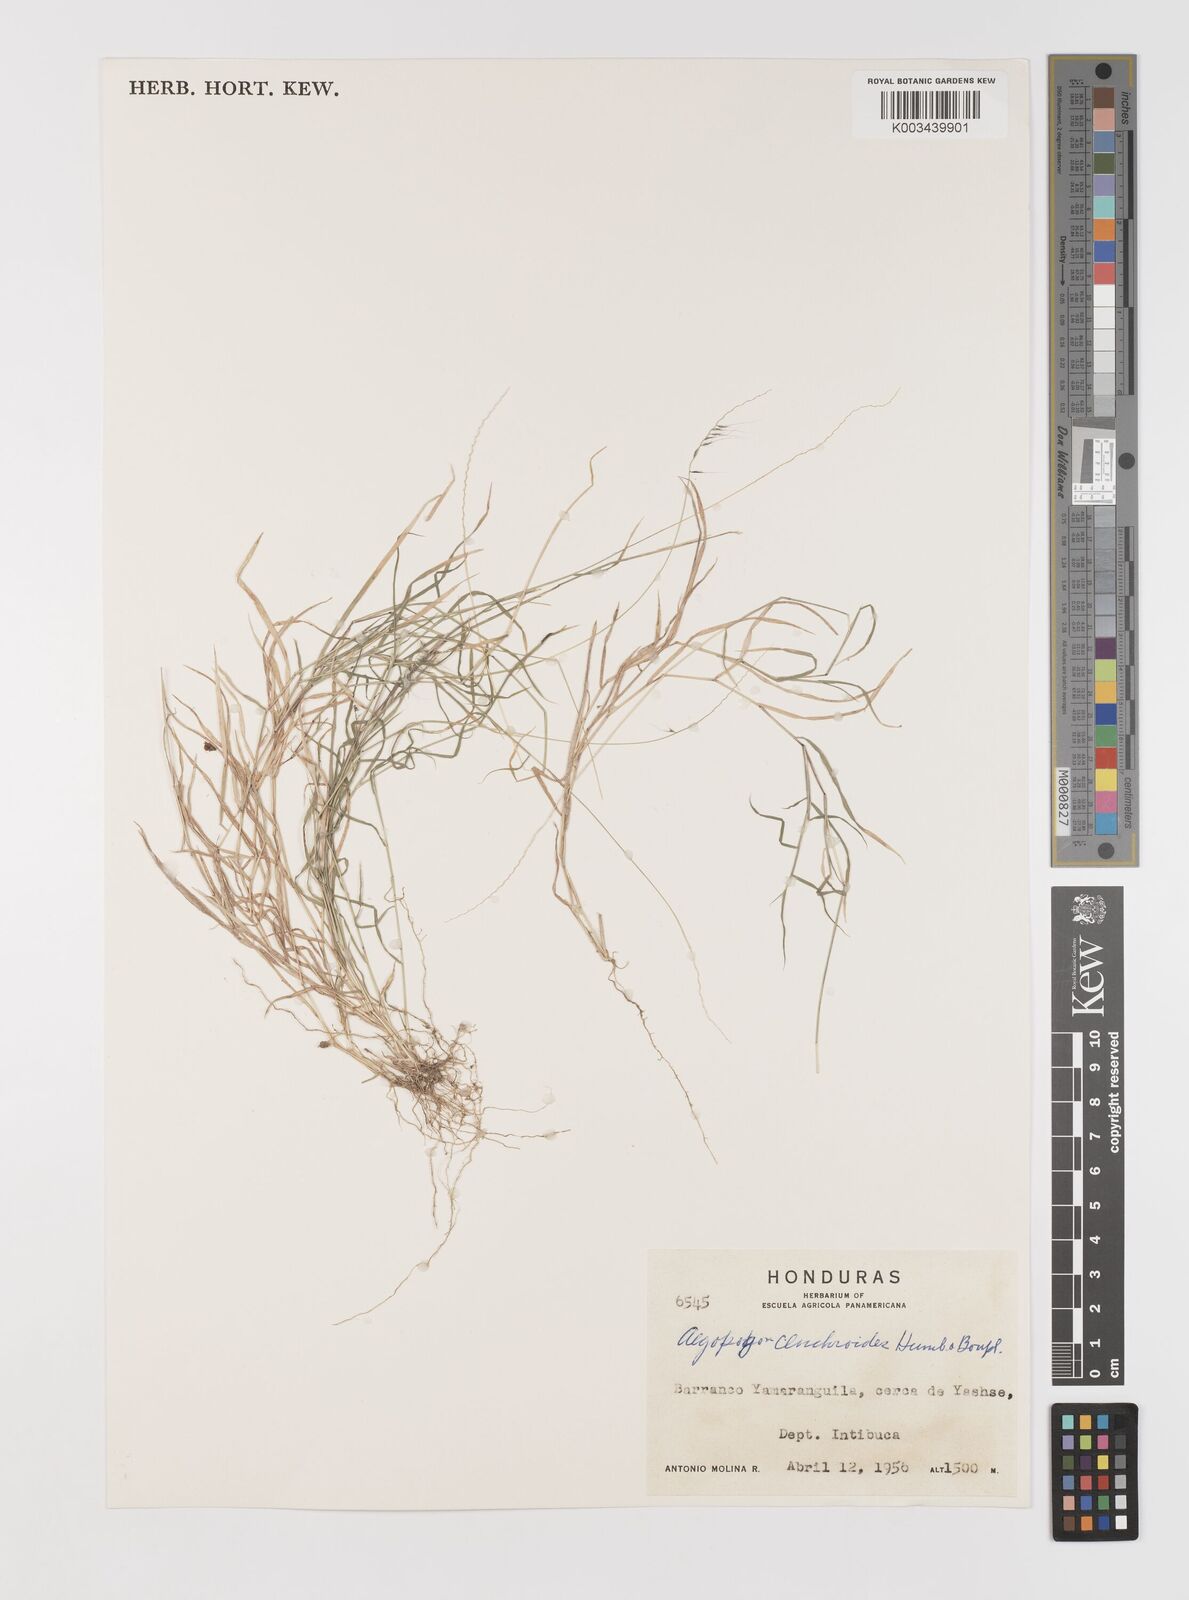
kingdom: Plantae
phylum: Tracheophyta
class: Liliopsida
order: Poales
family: Poaceae
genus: Muhlenbergia
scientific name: Muhlenbergia cenchroides
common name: Relaxgrass
